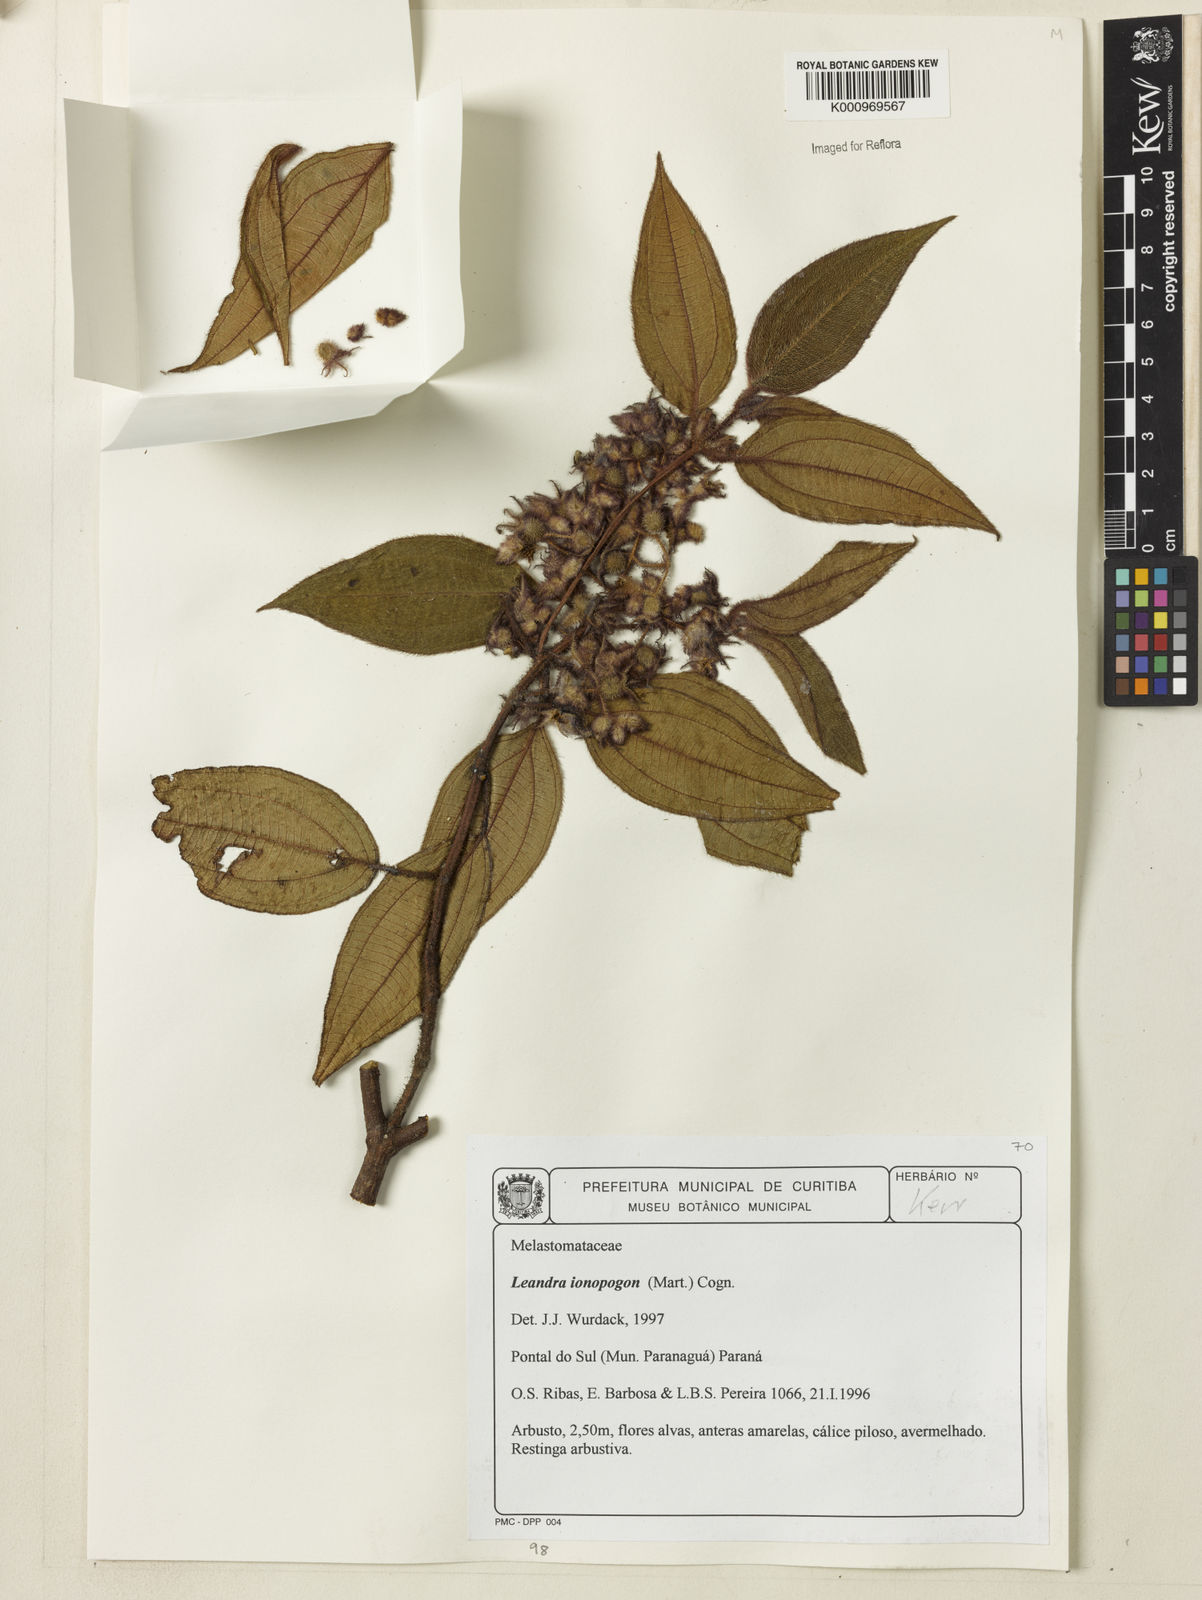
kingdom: Plantae
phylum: Tracheophyta
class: Magnoliopsida
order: Myrtales
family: Melastomataceae
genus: Miconia
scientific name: Miconia ionopogon
